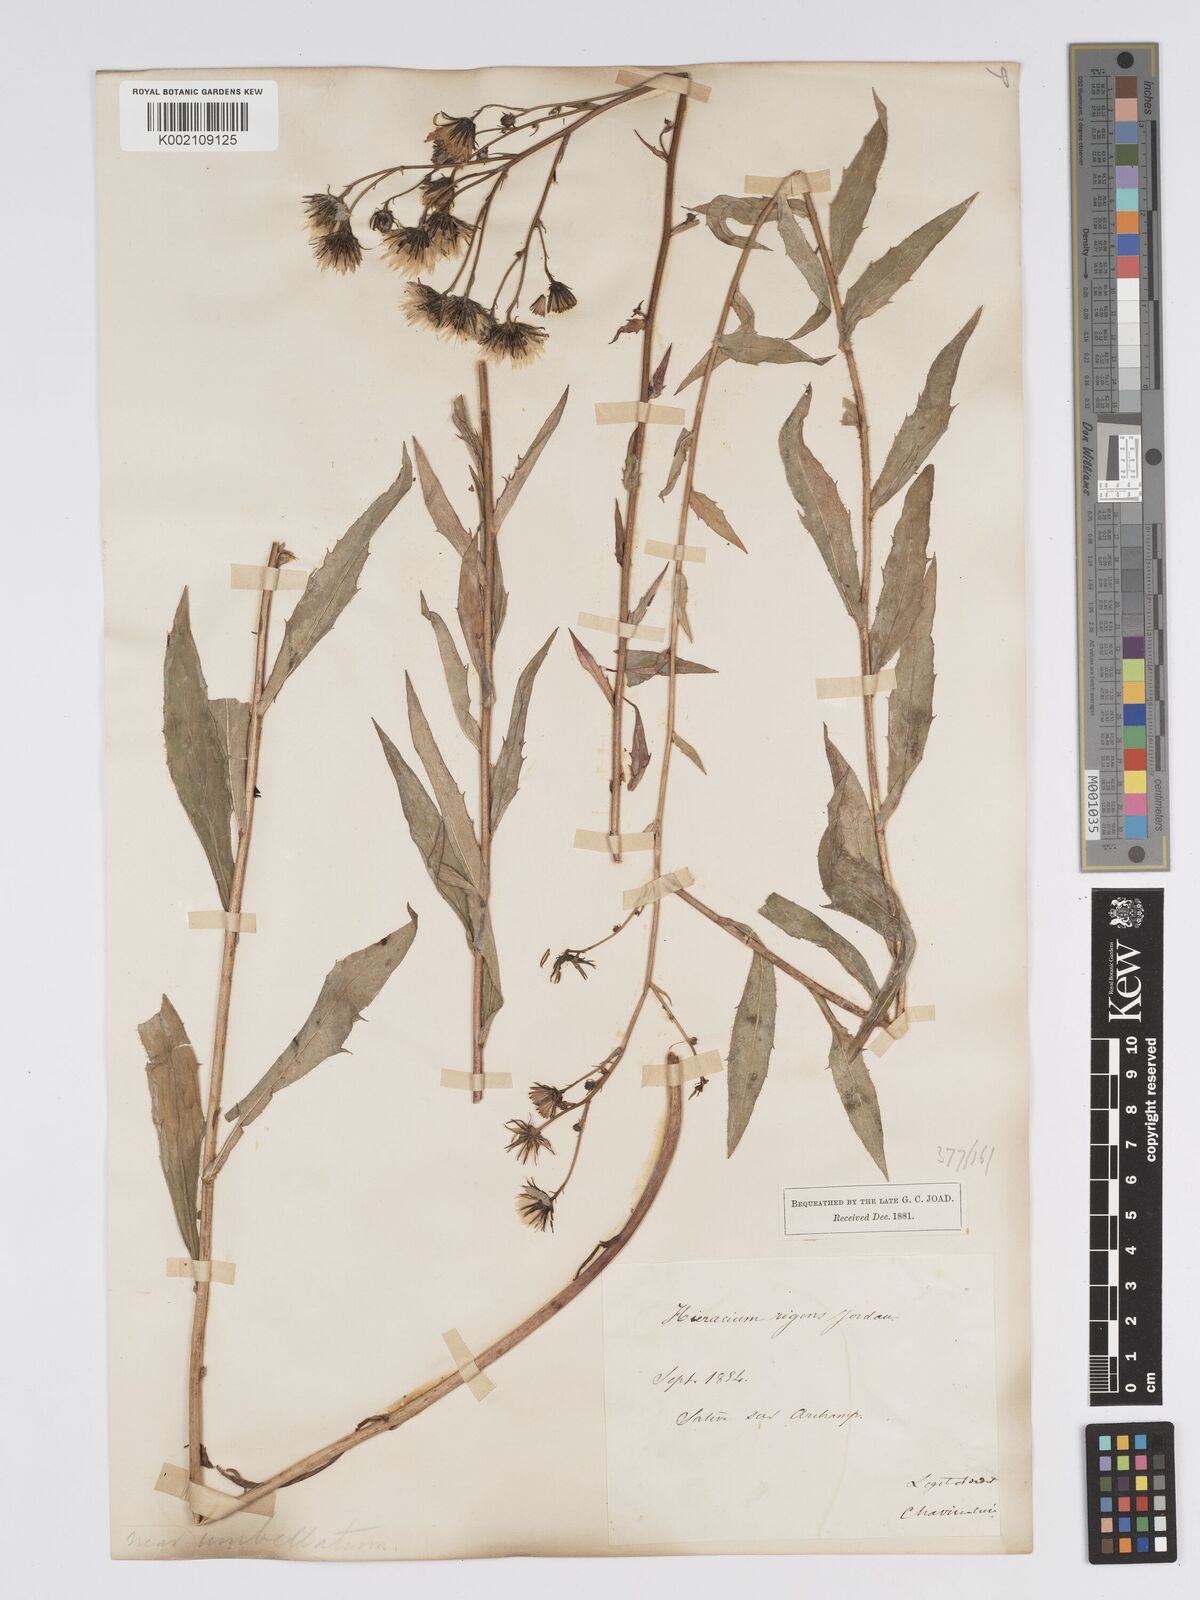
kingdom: Plantae
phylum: Tracheophyta
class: Magnoliopsida
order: Asterales
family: Asteraceae
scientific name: Asteraceae
